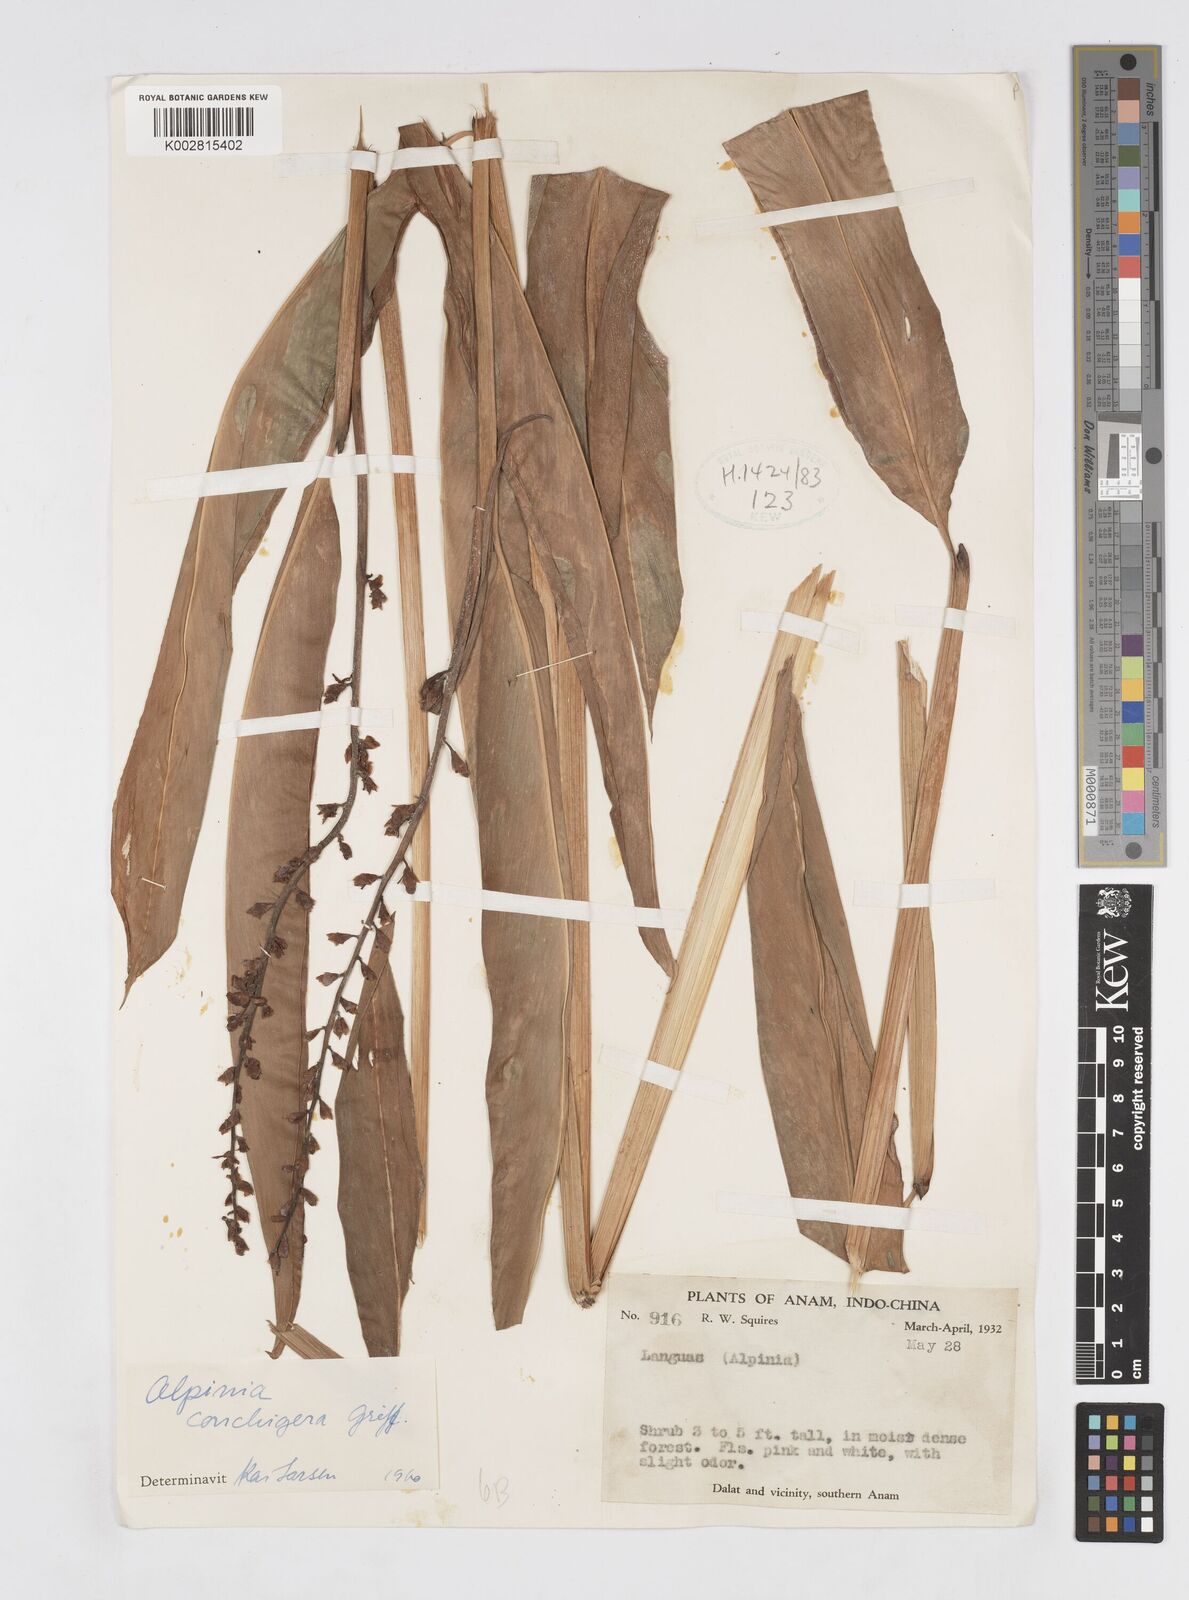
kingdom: Plantae
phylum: Tracheophyta
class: Liliopsida
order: Zingiberales
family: Zingiberaceae
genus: Alpinia
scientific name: Alpinia conchigera
